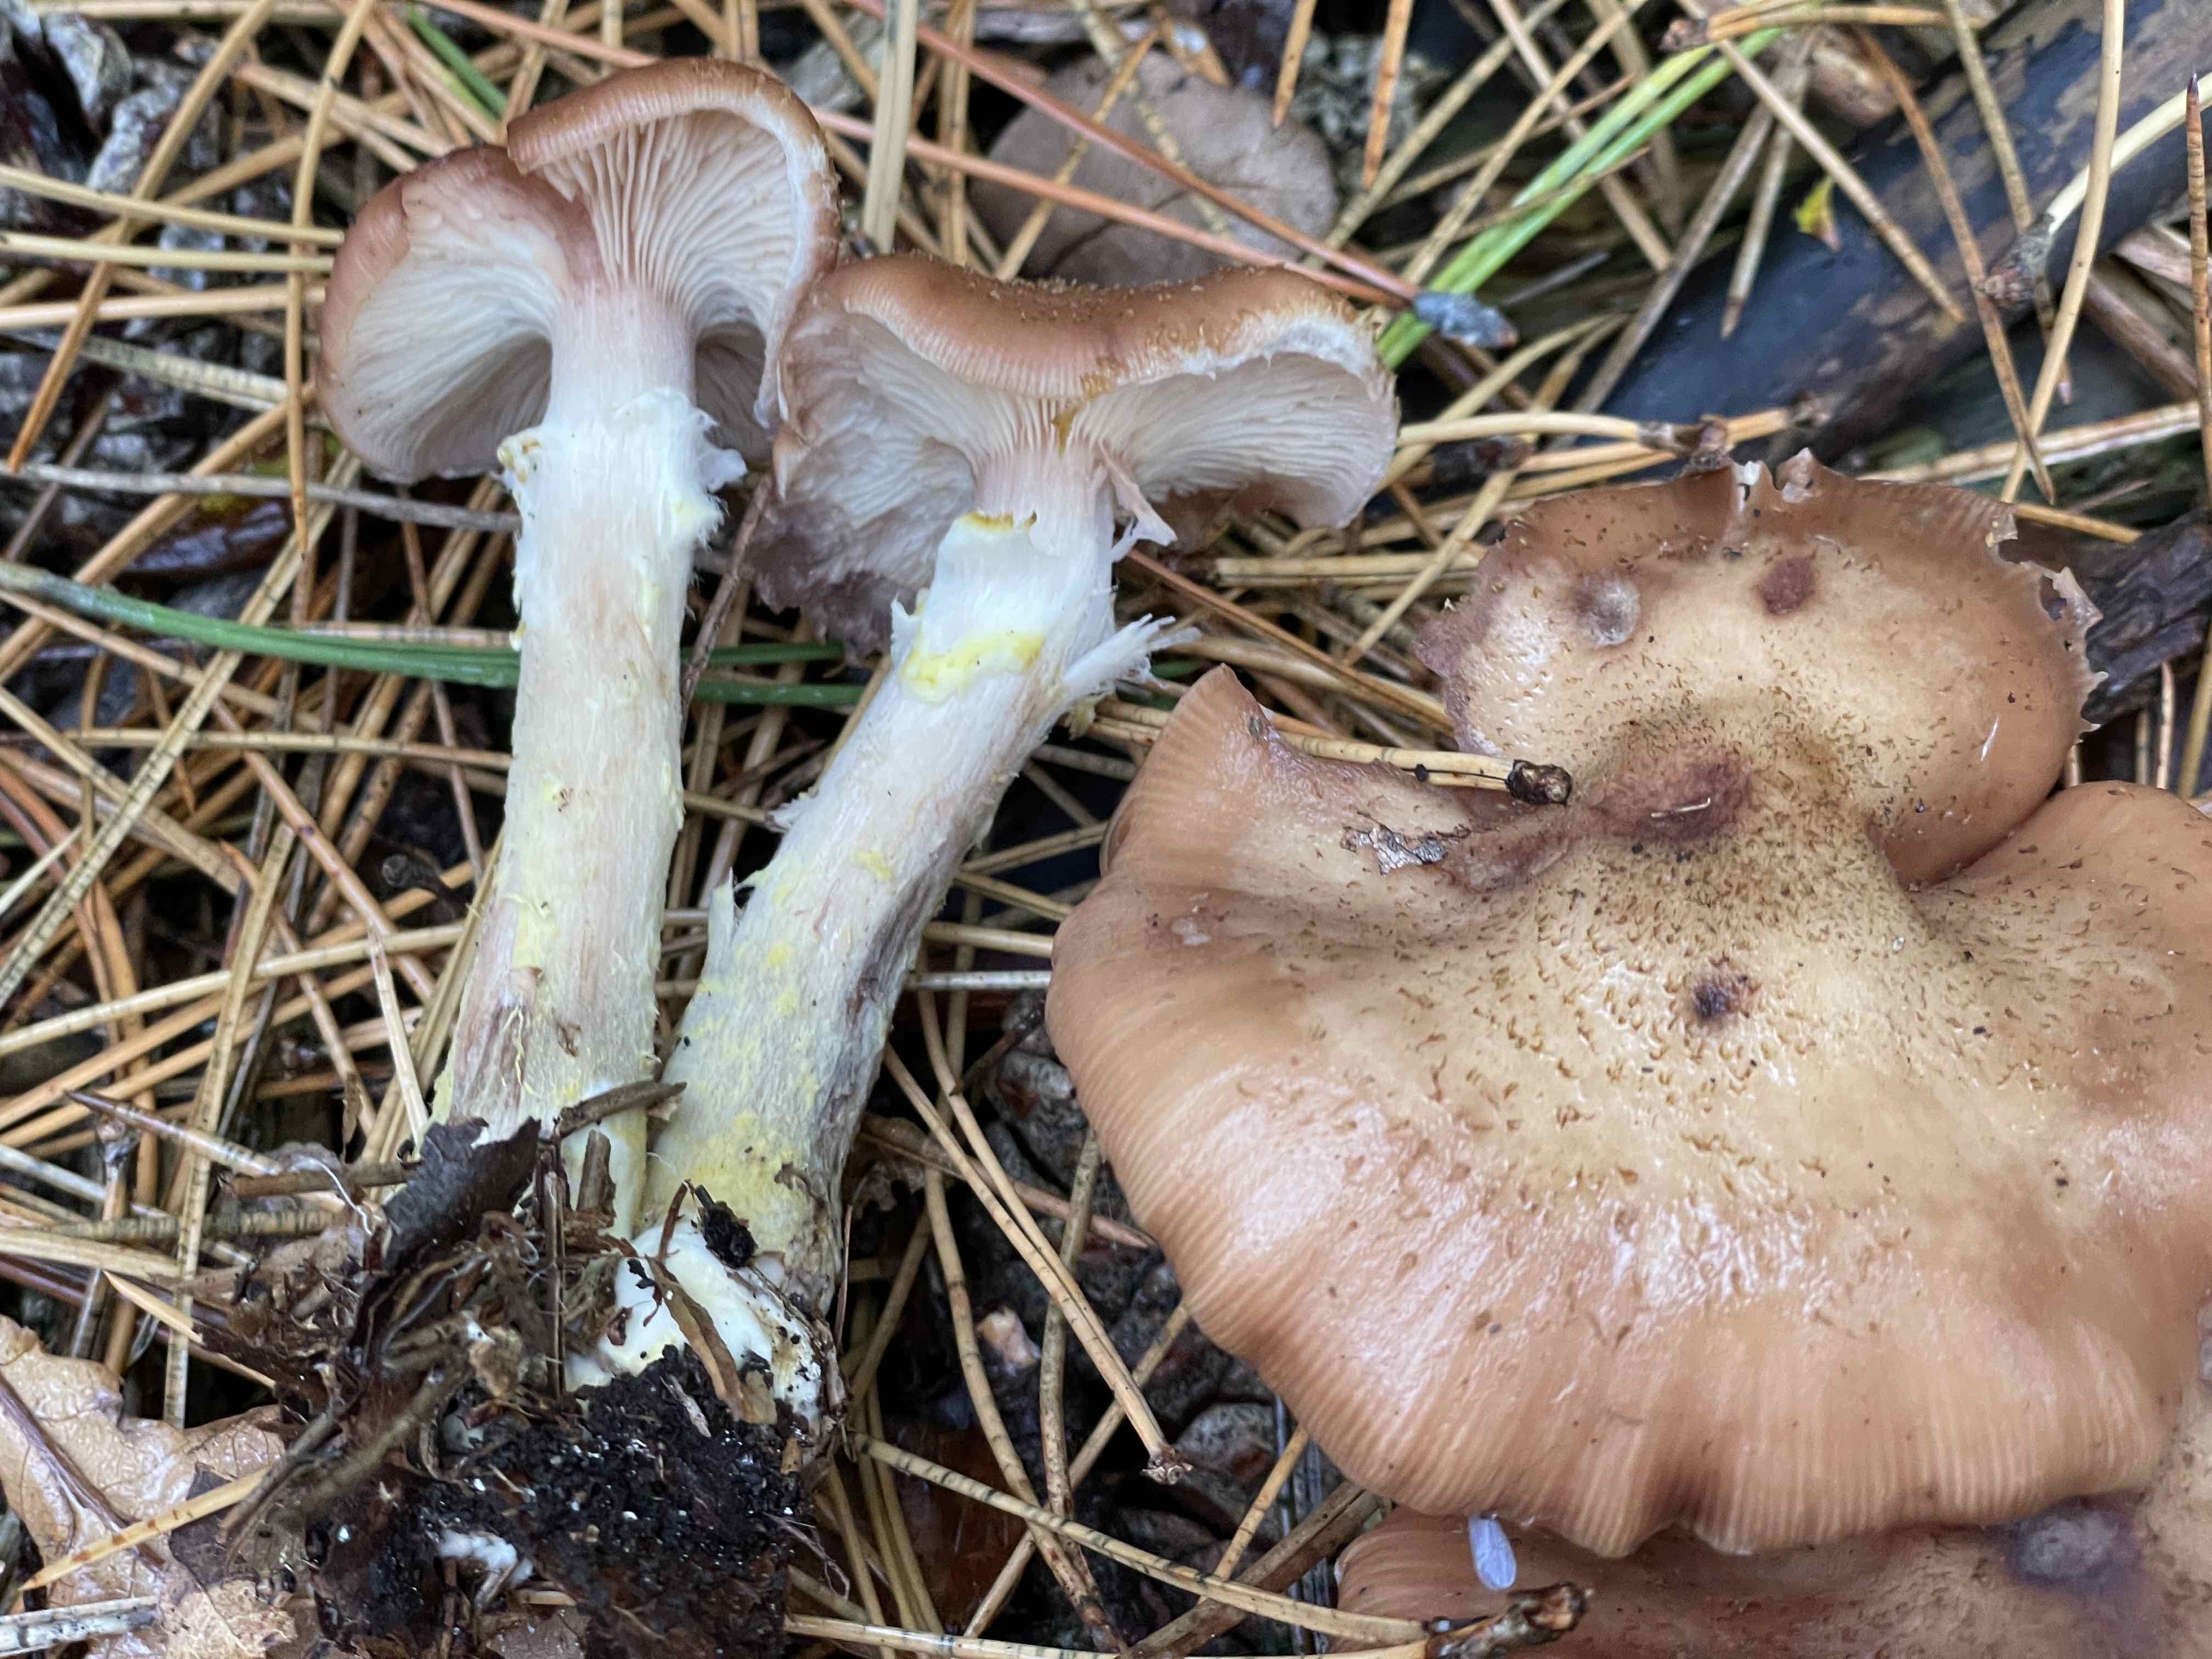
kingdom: Fungi
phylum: Basidiomycota
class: Agaricomycetes
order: Agaricales
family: Physalacriaceae
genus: Armillaria
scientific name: Armillaria lutea
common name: køllestokket honningsvamp
